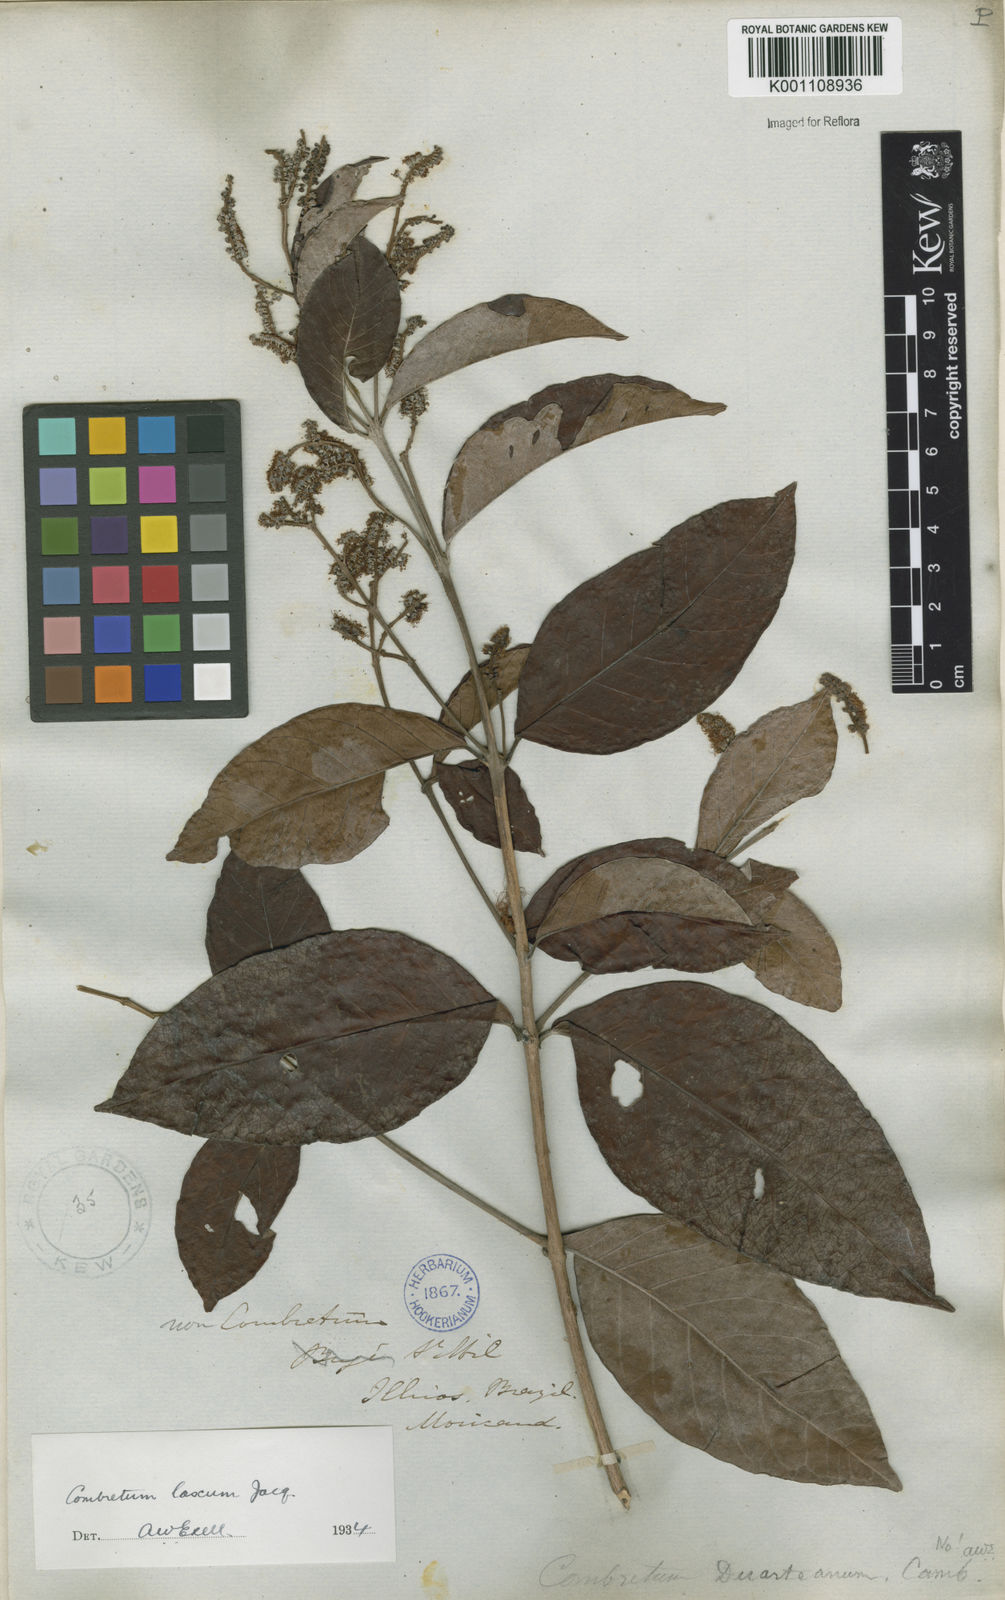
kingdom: Plantae
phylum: Tracheophyta
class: Magnoliopsida
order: Myrtales
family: Combretaceae
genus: Combretum
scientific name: Combretum laxum
